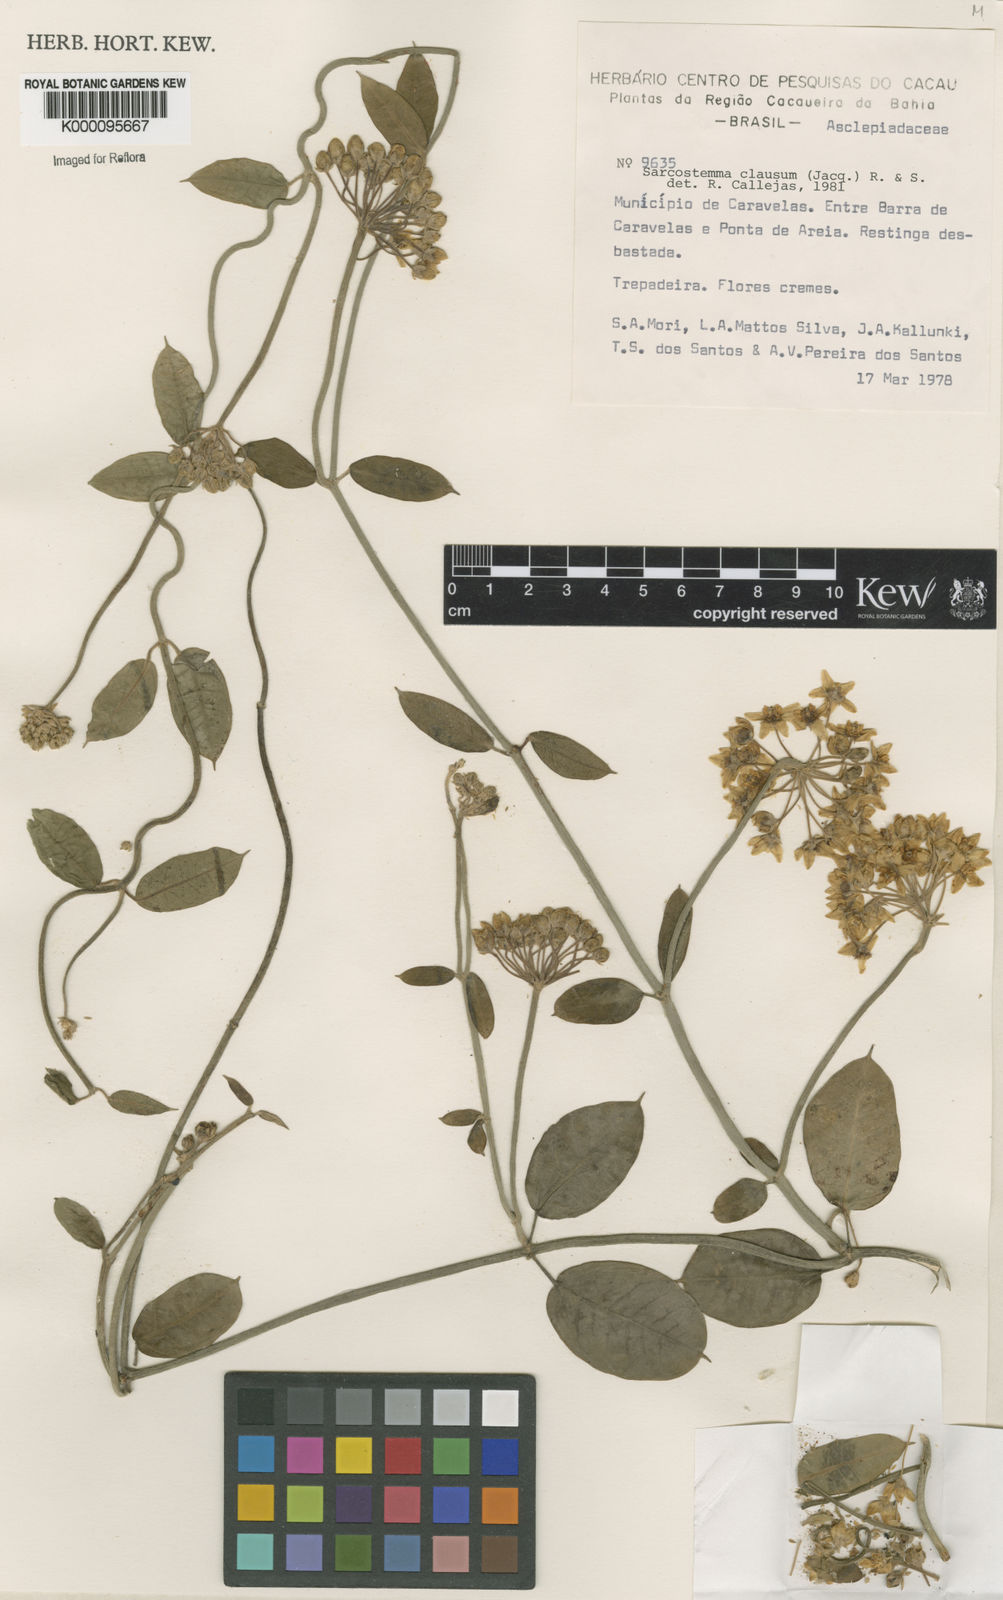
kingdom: Plantae
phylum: Tracheophyta
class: Magnoliopsida
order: Gentianales
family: Apocynaceae
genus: Funastrum
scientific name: Funastrum clausum
